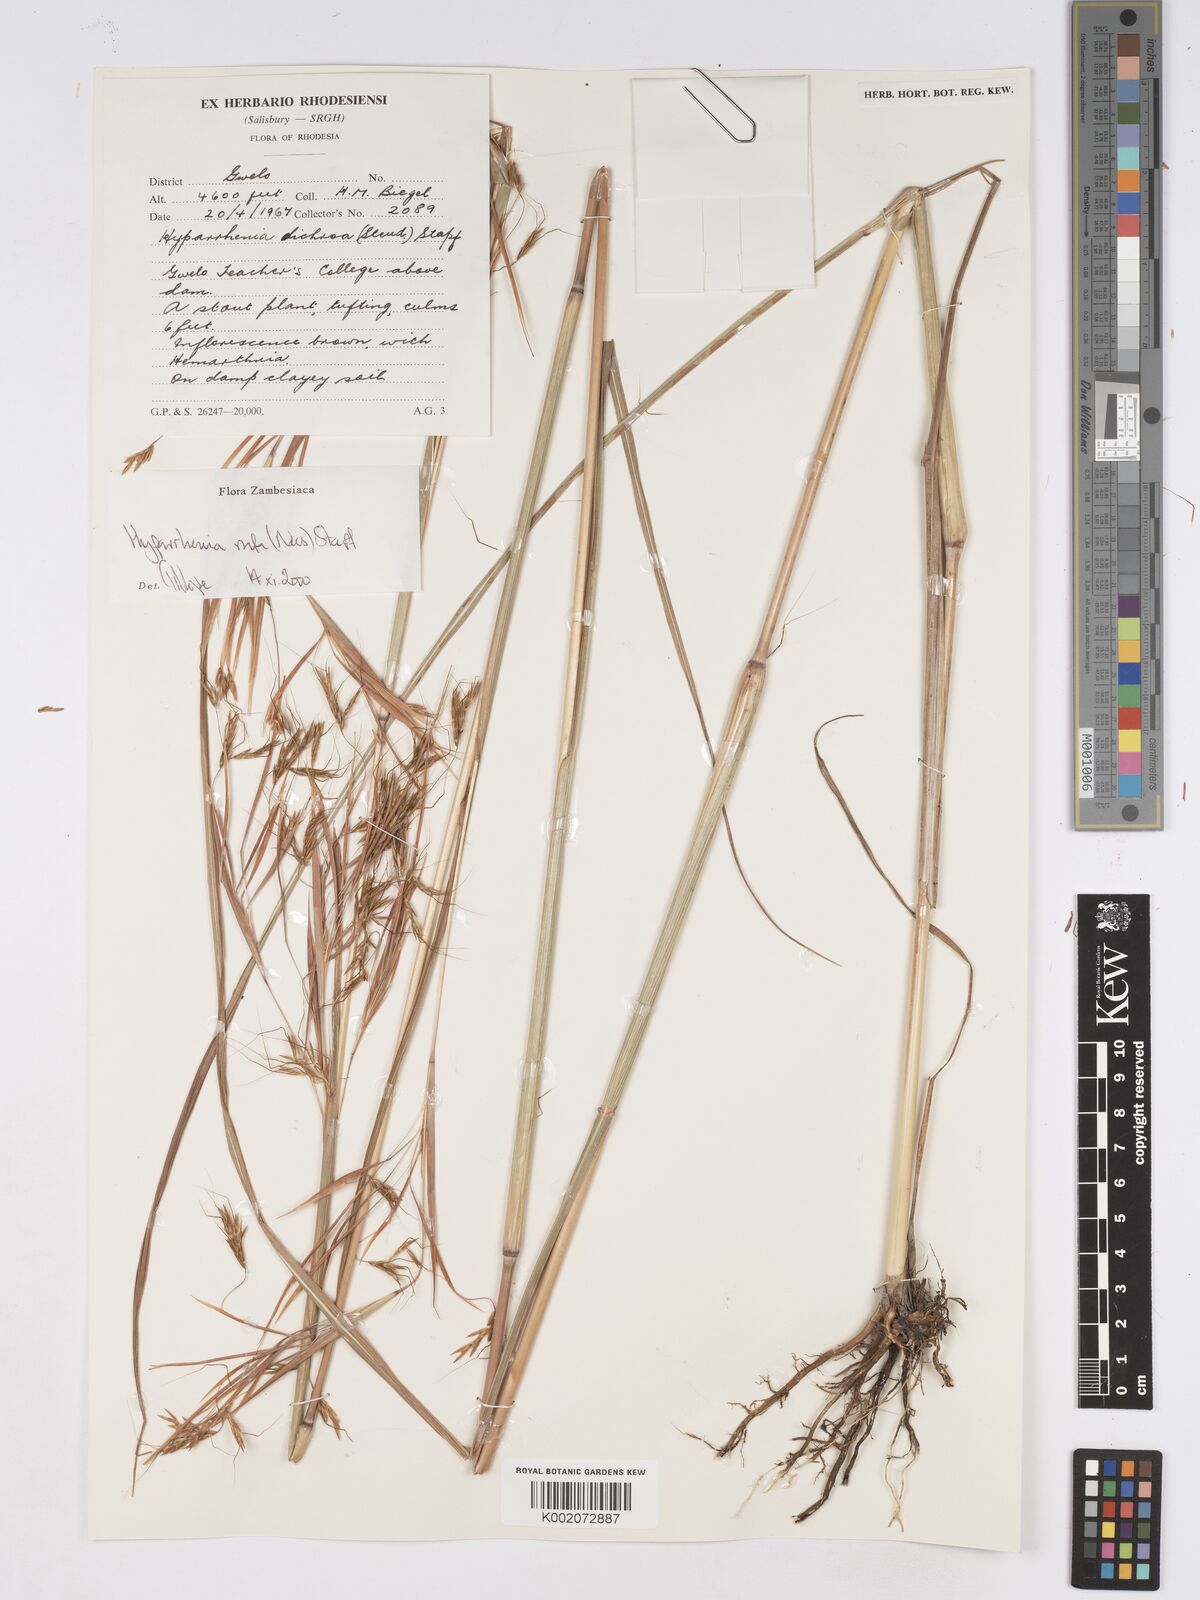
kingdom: Plantae
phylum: Tracheophyta
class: Liliopsida
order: Poales
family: Poaceae
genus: Hyparrhenia
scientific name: Hyparrhenia rufa
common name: Jaraguagrass
